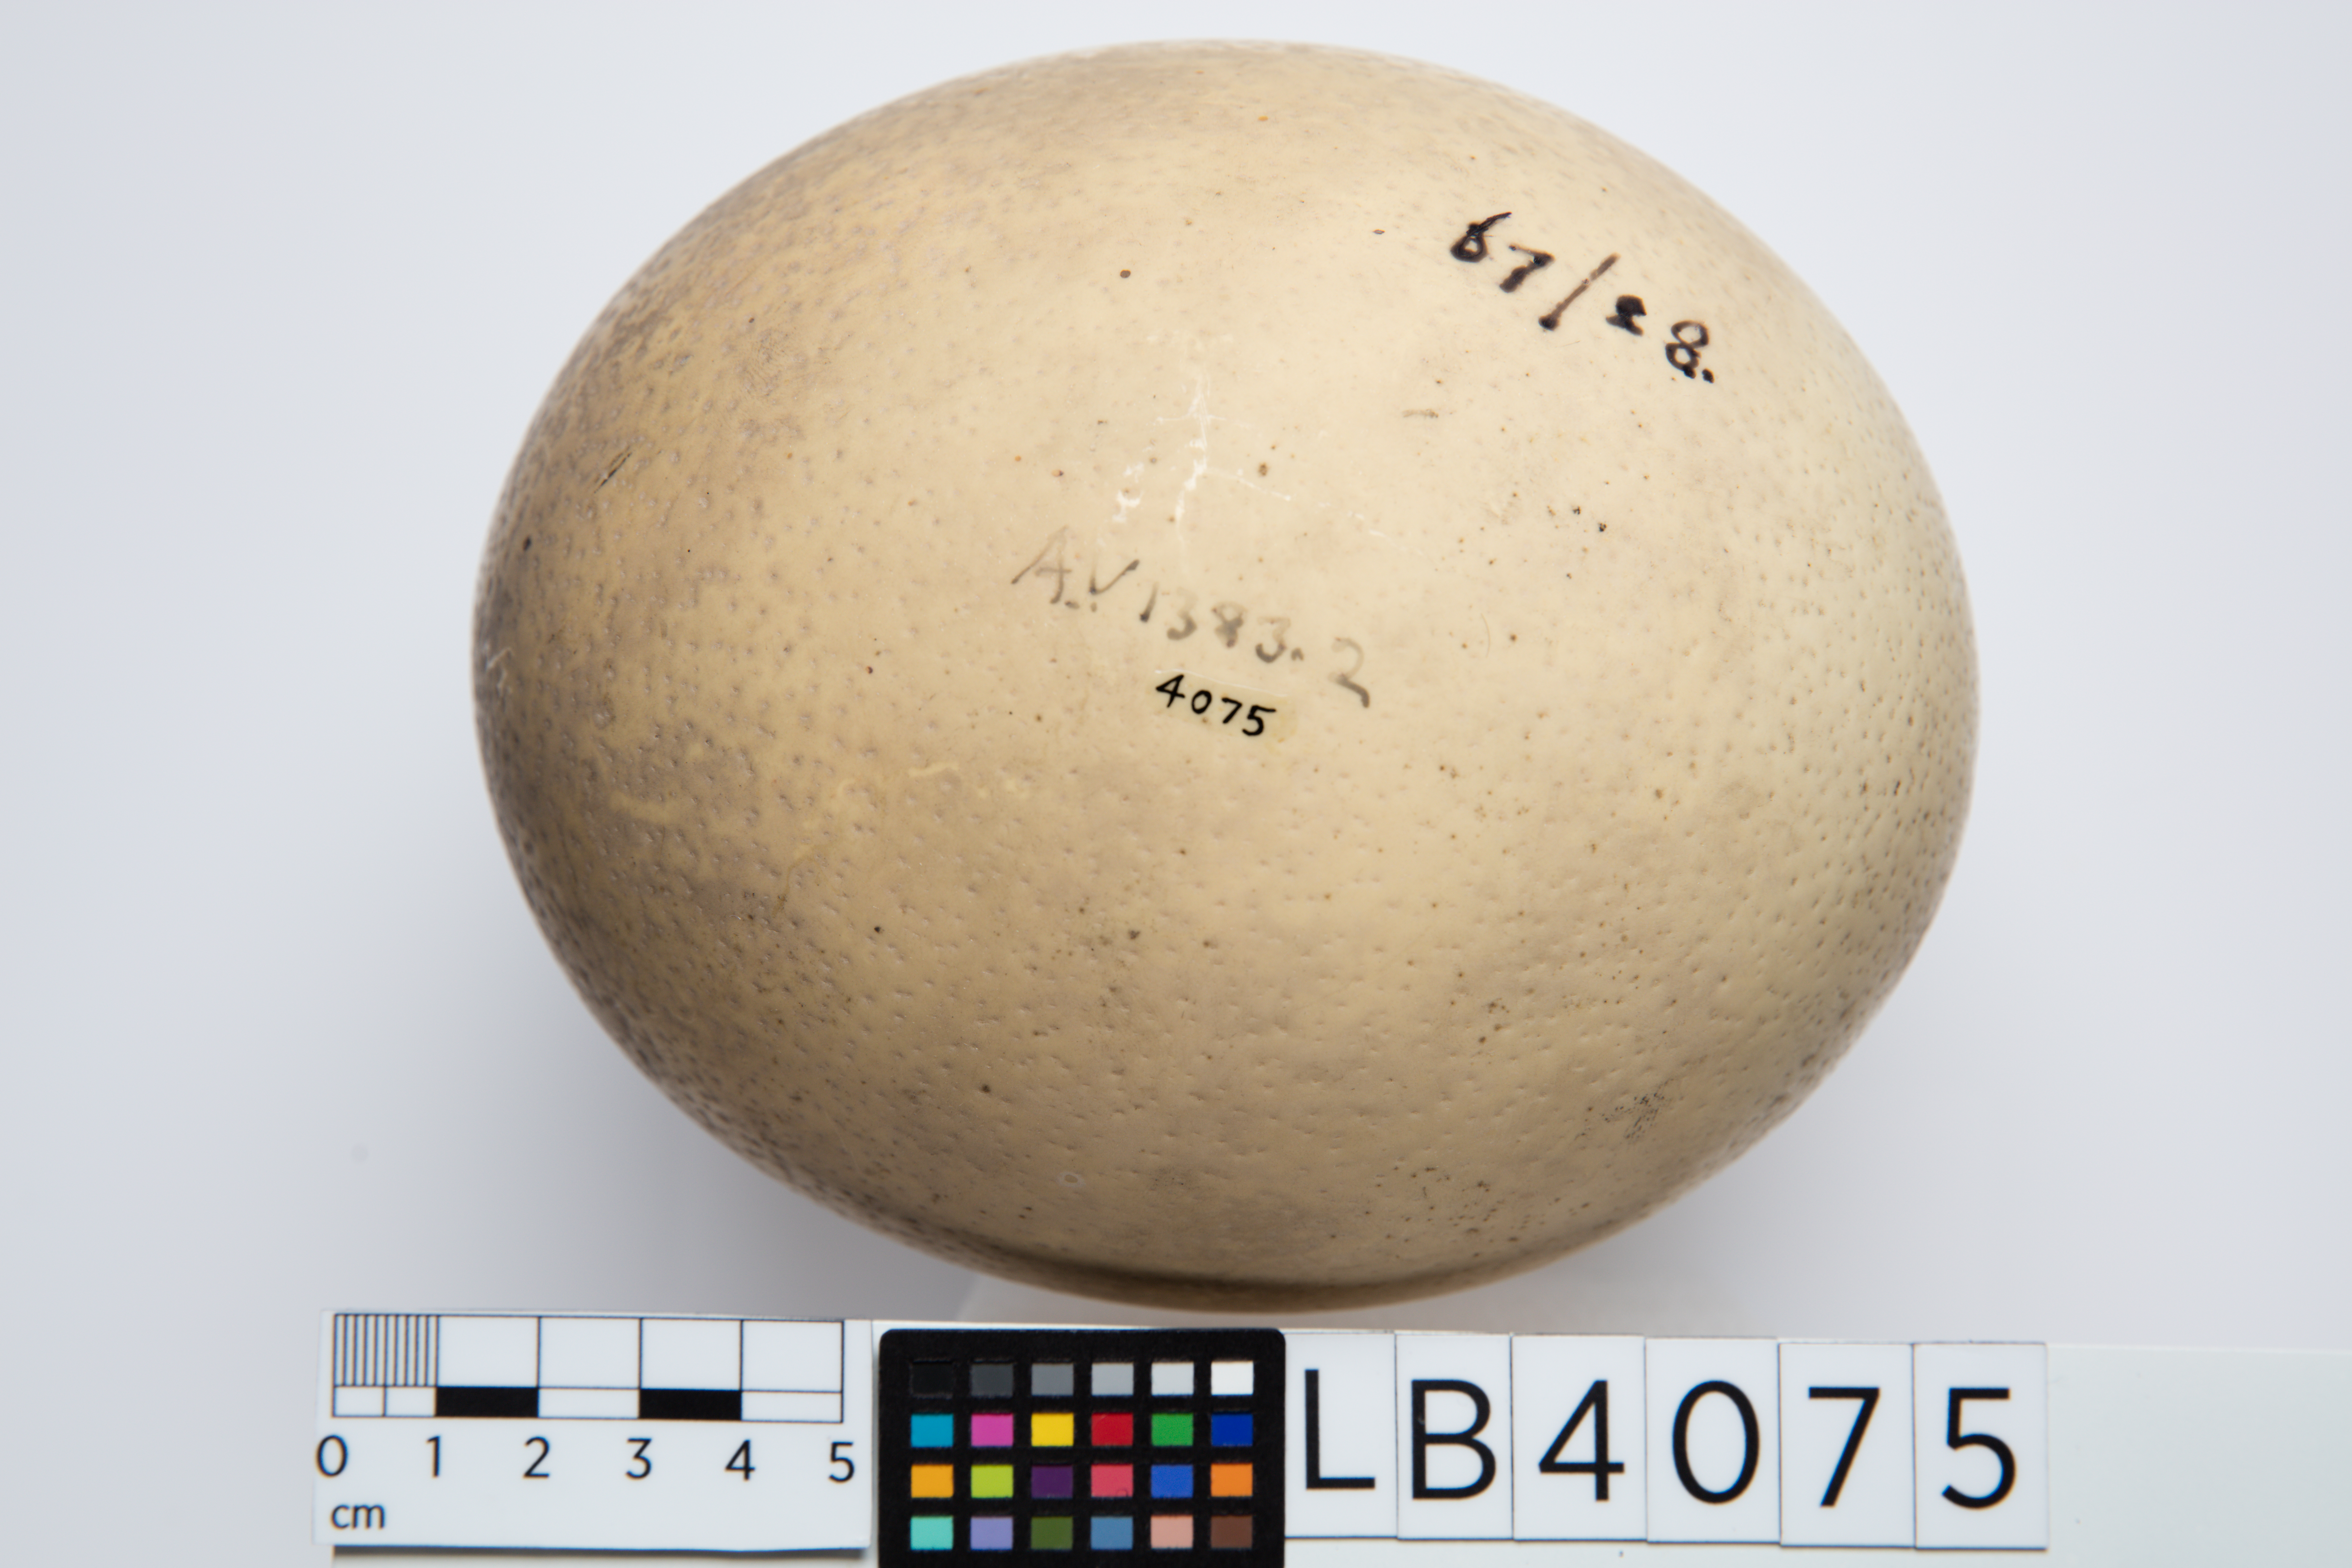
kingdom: Animalia
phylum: Chordata
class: Aves
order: Struthioniformes
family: Struthionidae
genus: Struthio
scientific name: Struthio camelus
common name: Common ostrich
